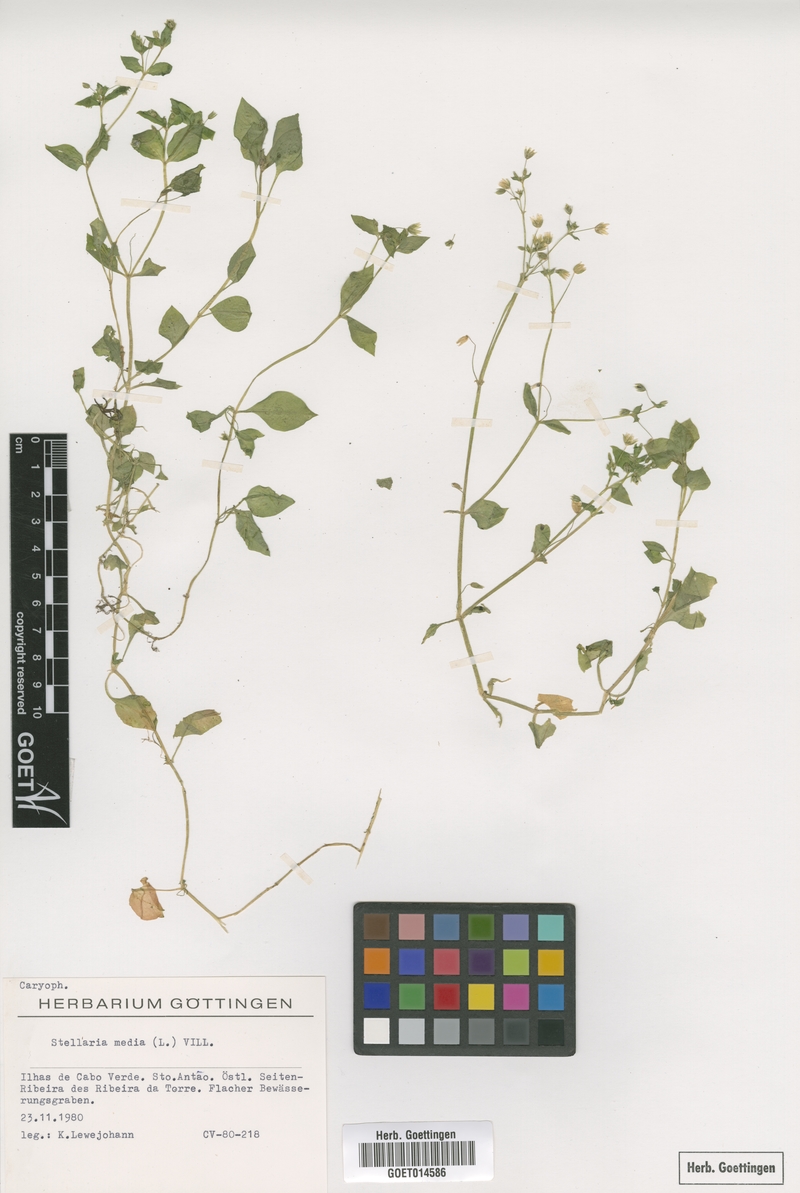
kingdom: Plantae
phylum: Tracheophyta
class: Magnoliopsida
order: Caryophyllales
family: Caryophyllaceae
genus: Stellaria
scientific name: Stellaria media
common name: Common chickweed
